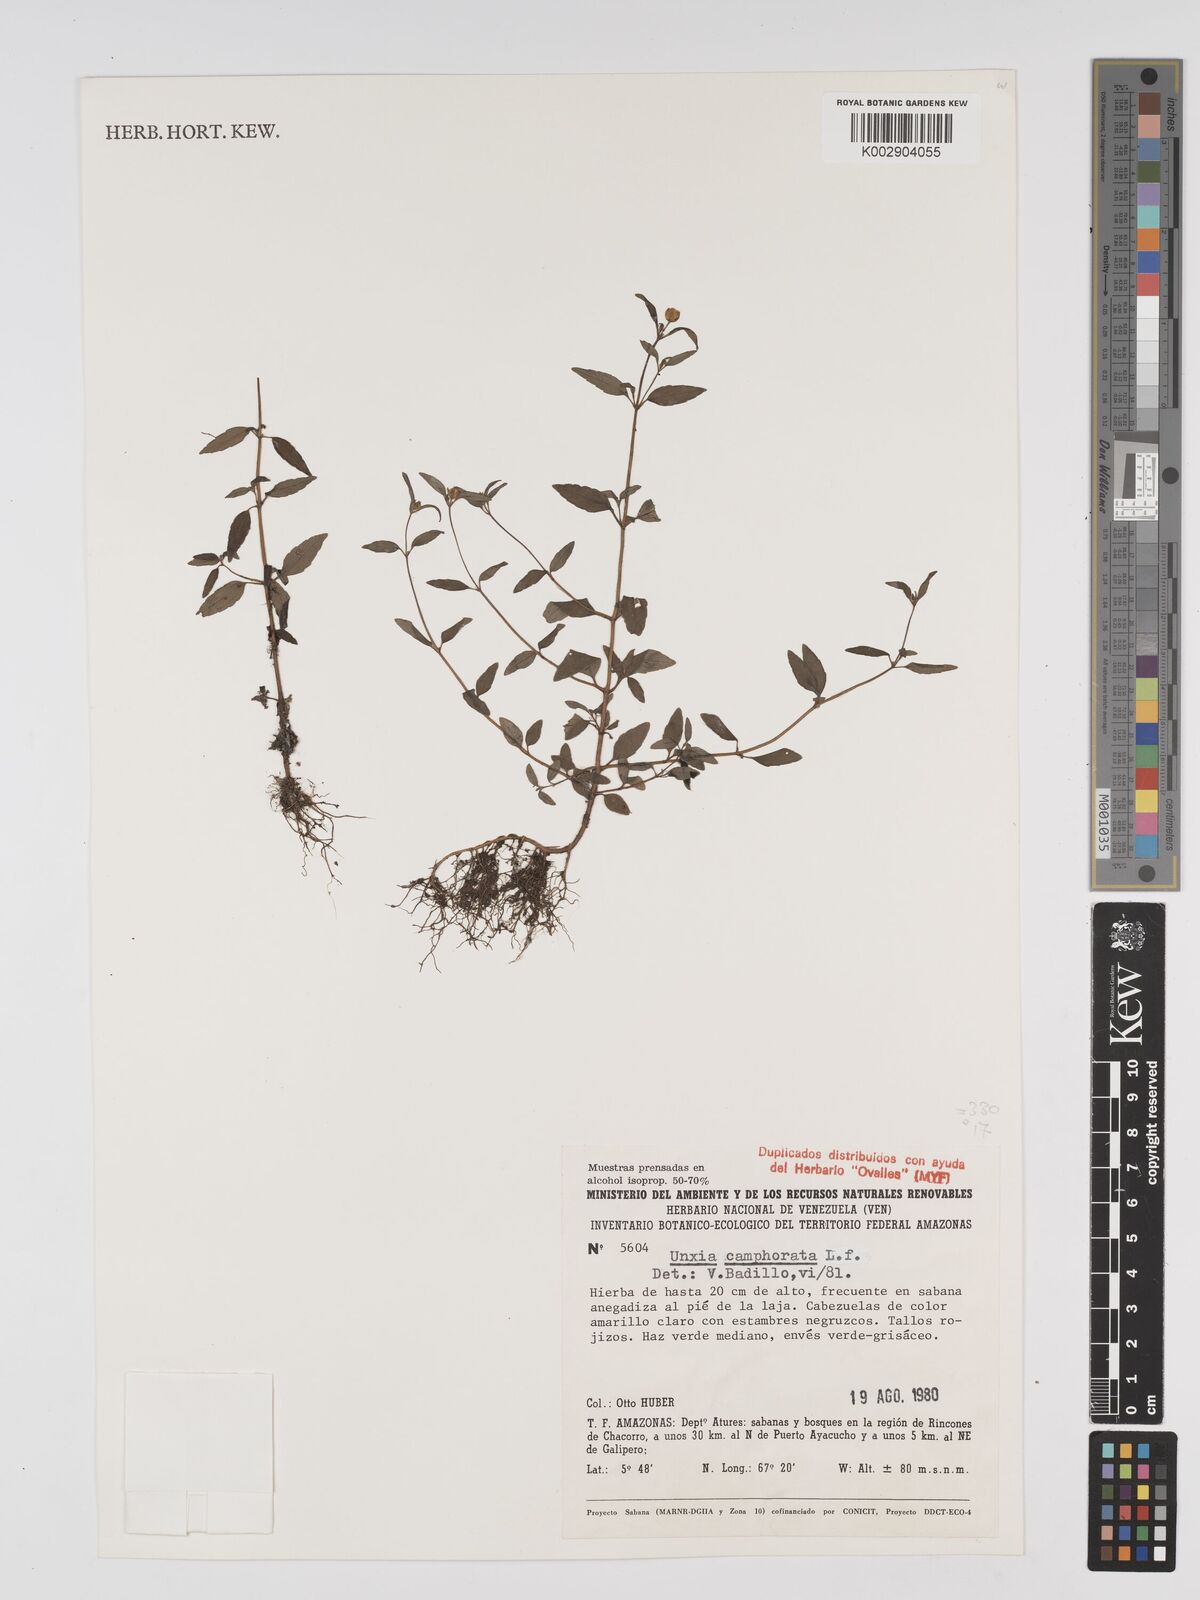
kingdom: Plantae
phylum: Tracheophyta
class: Magnoliopsida
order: Asterales
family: Asteraceae
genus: Unxia
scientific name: Unxia camphorata
